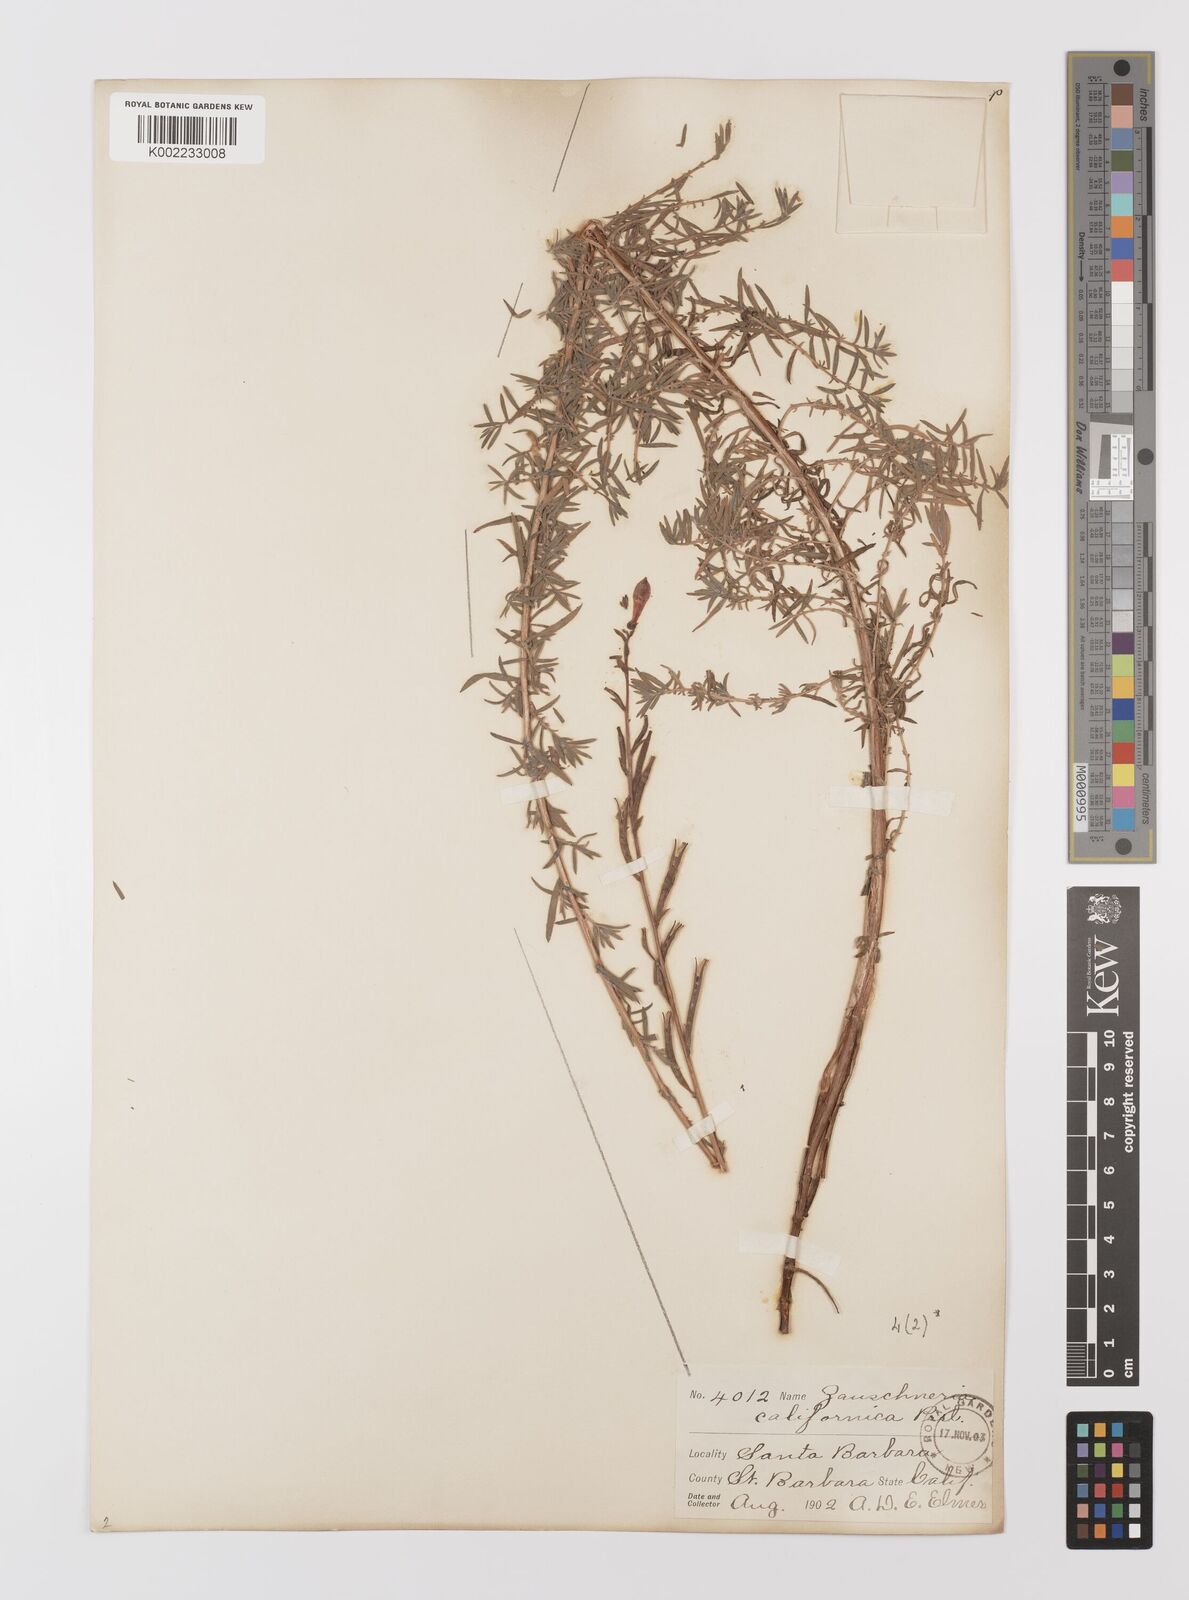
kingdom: Plantae
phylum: Tracheophyta
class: Magnoliopsida
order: Myrtales
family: Onagraceae
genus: Epilobium
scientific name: Epilobium canum
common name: California-fuchsia
